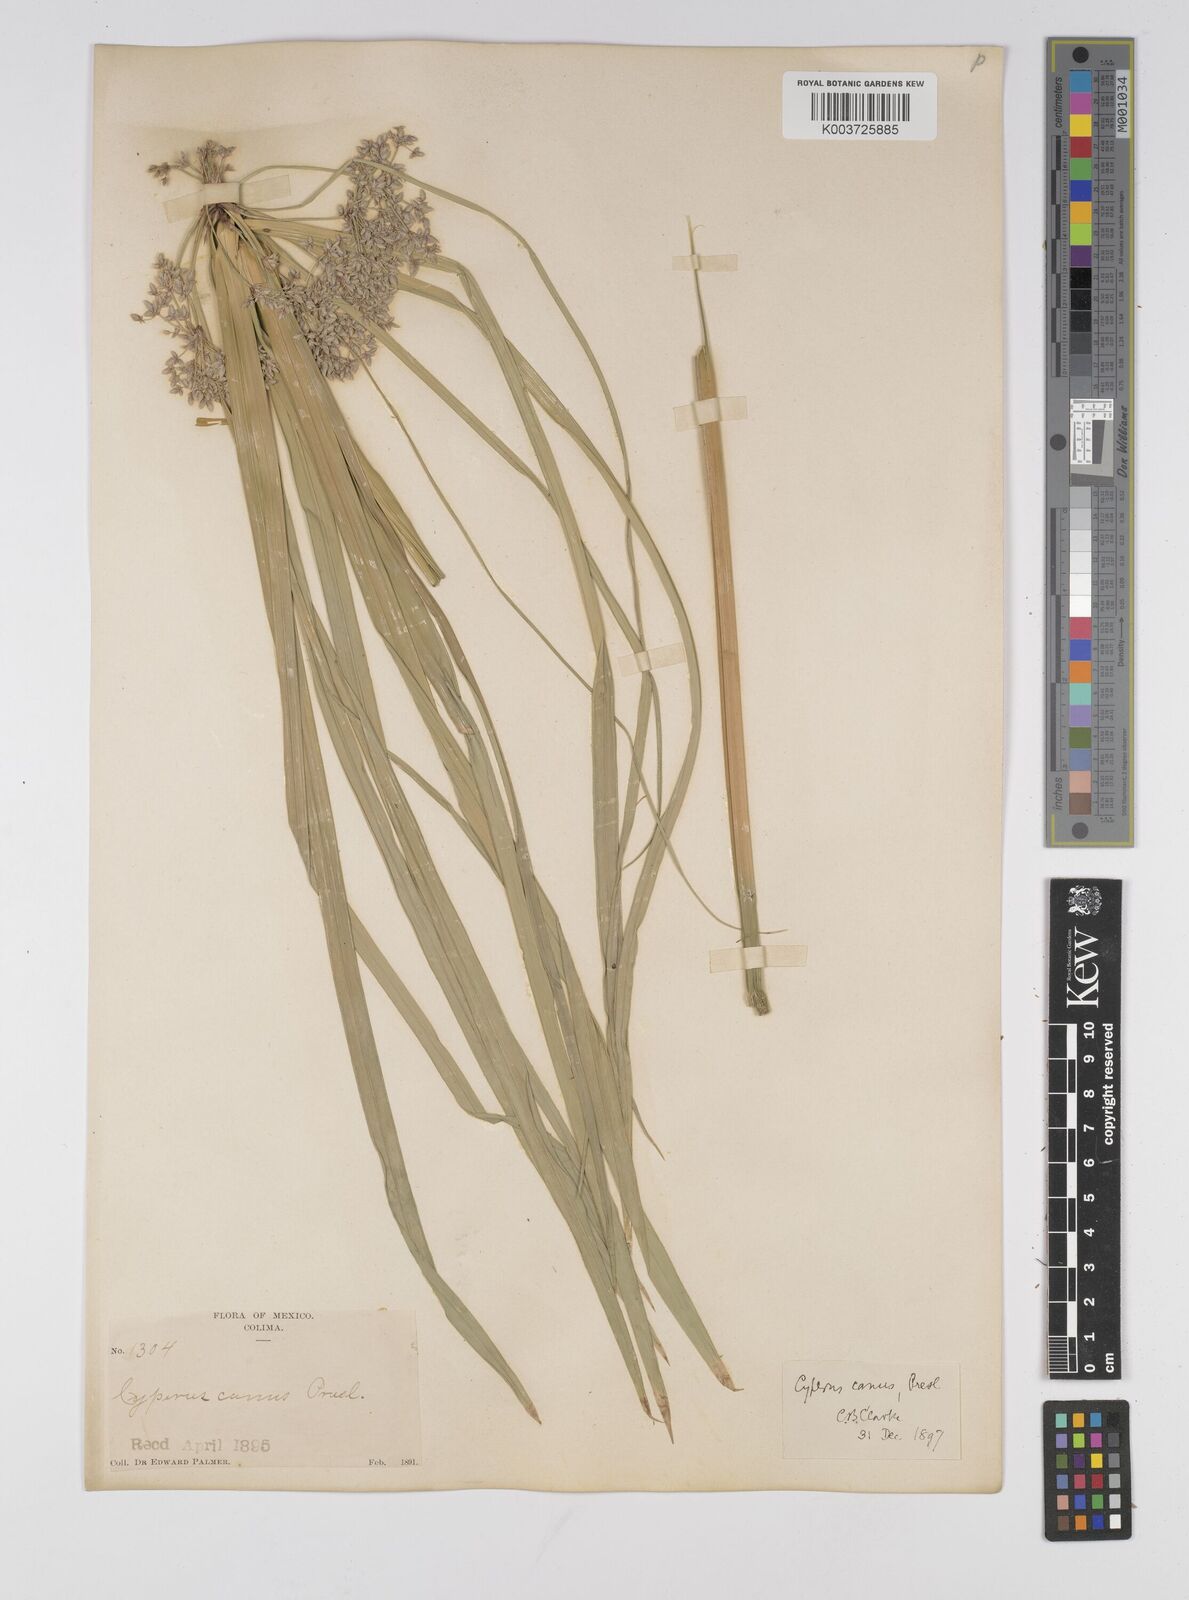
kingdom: Plantae
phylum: Tracheophyta
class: Liliopsida
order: Poales
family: Cyperaceae
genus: Cyperus
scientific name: Cyperus canus
